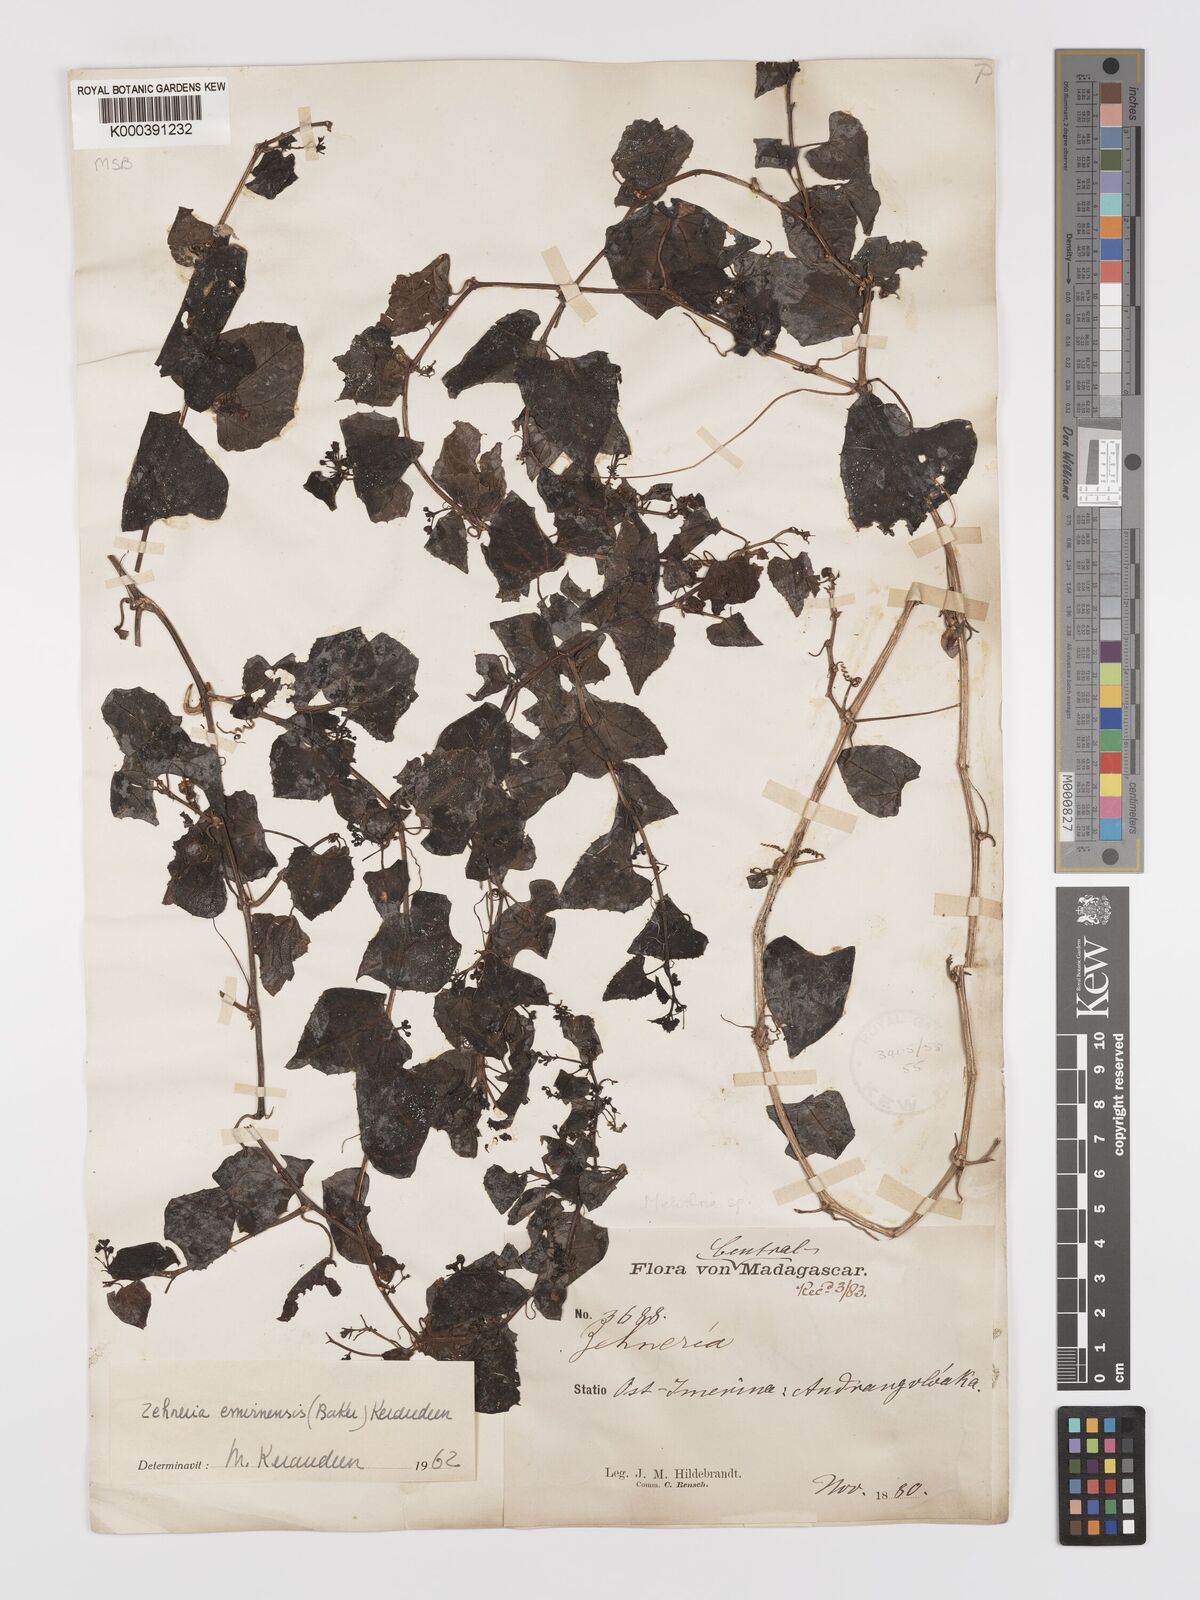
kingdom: Plantae
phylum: Tracheophyta
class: Magnoliopsida
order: Cucurbitales
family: Cucurbitaceae
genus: Zehneria
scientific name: Zehneria emirnensis
